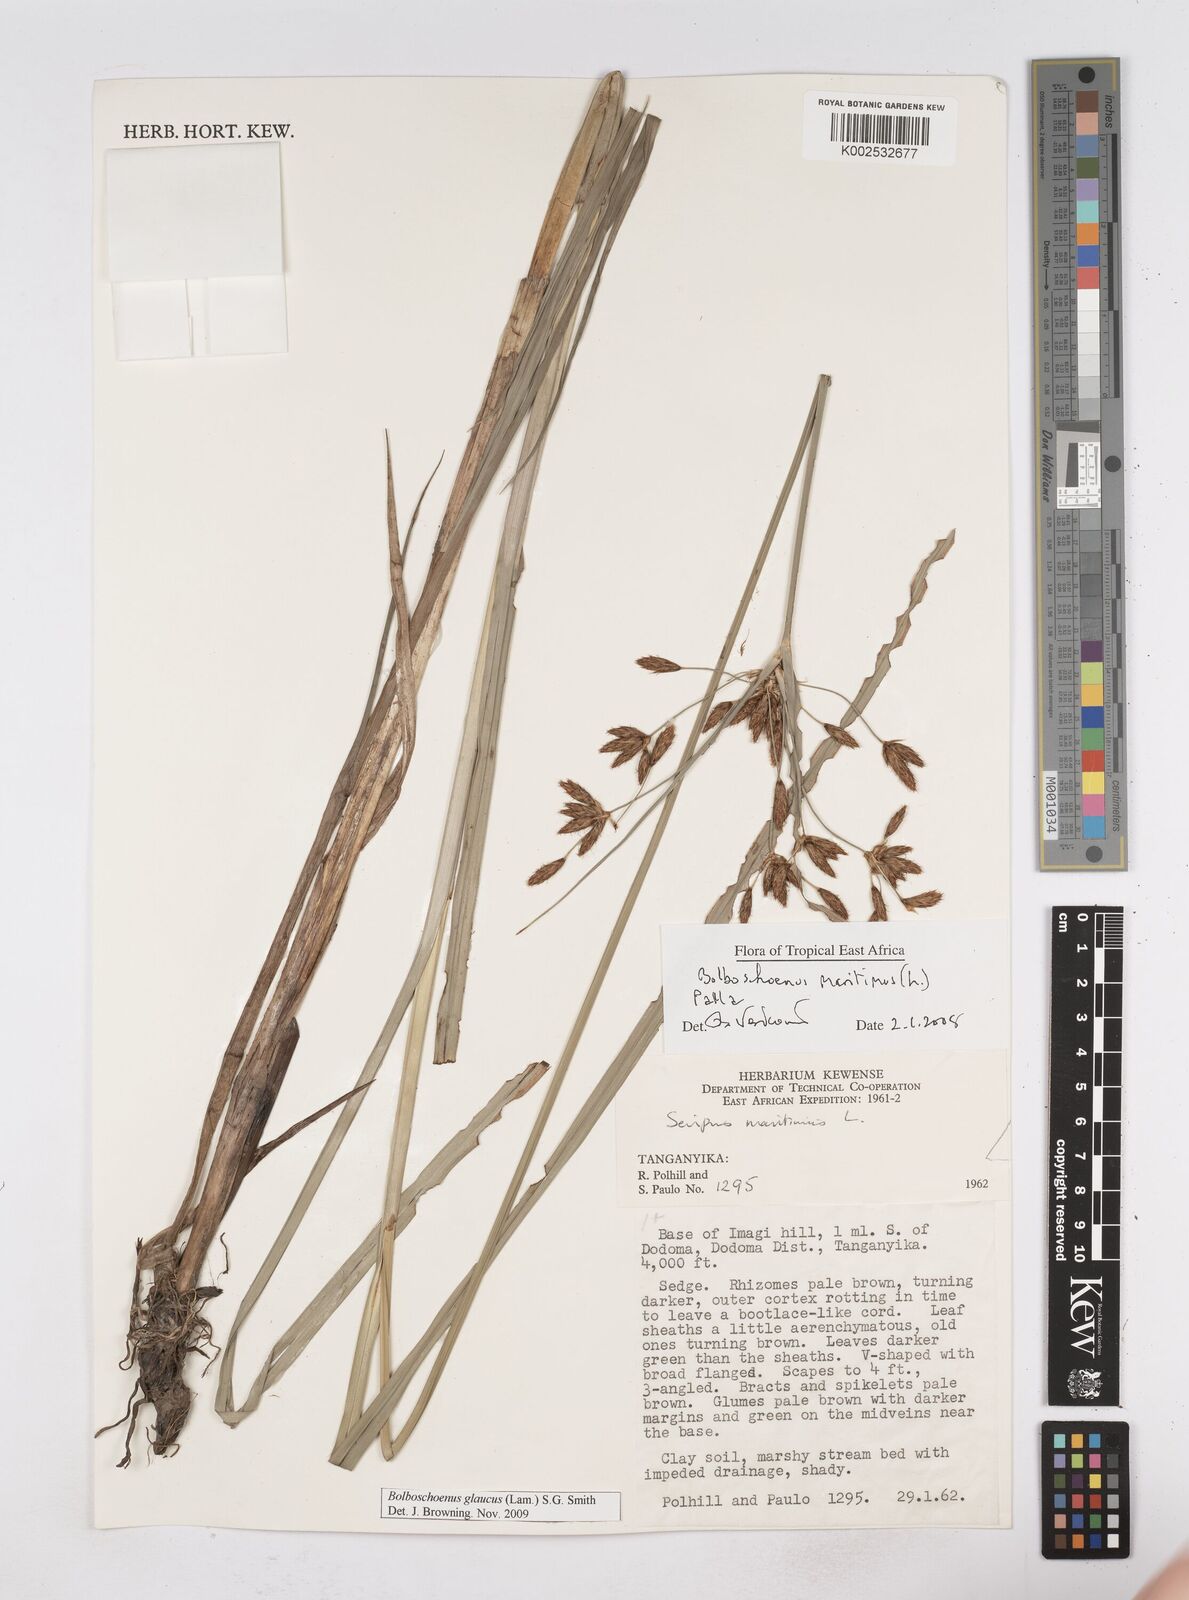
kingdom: Plantae
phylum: Tracheophyta
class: Liliopsida
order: Poales
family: Cyperaceae
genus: Bolboschoenus
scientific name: Bolboschoenus glaucus
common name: Tuberous bulrush
